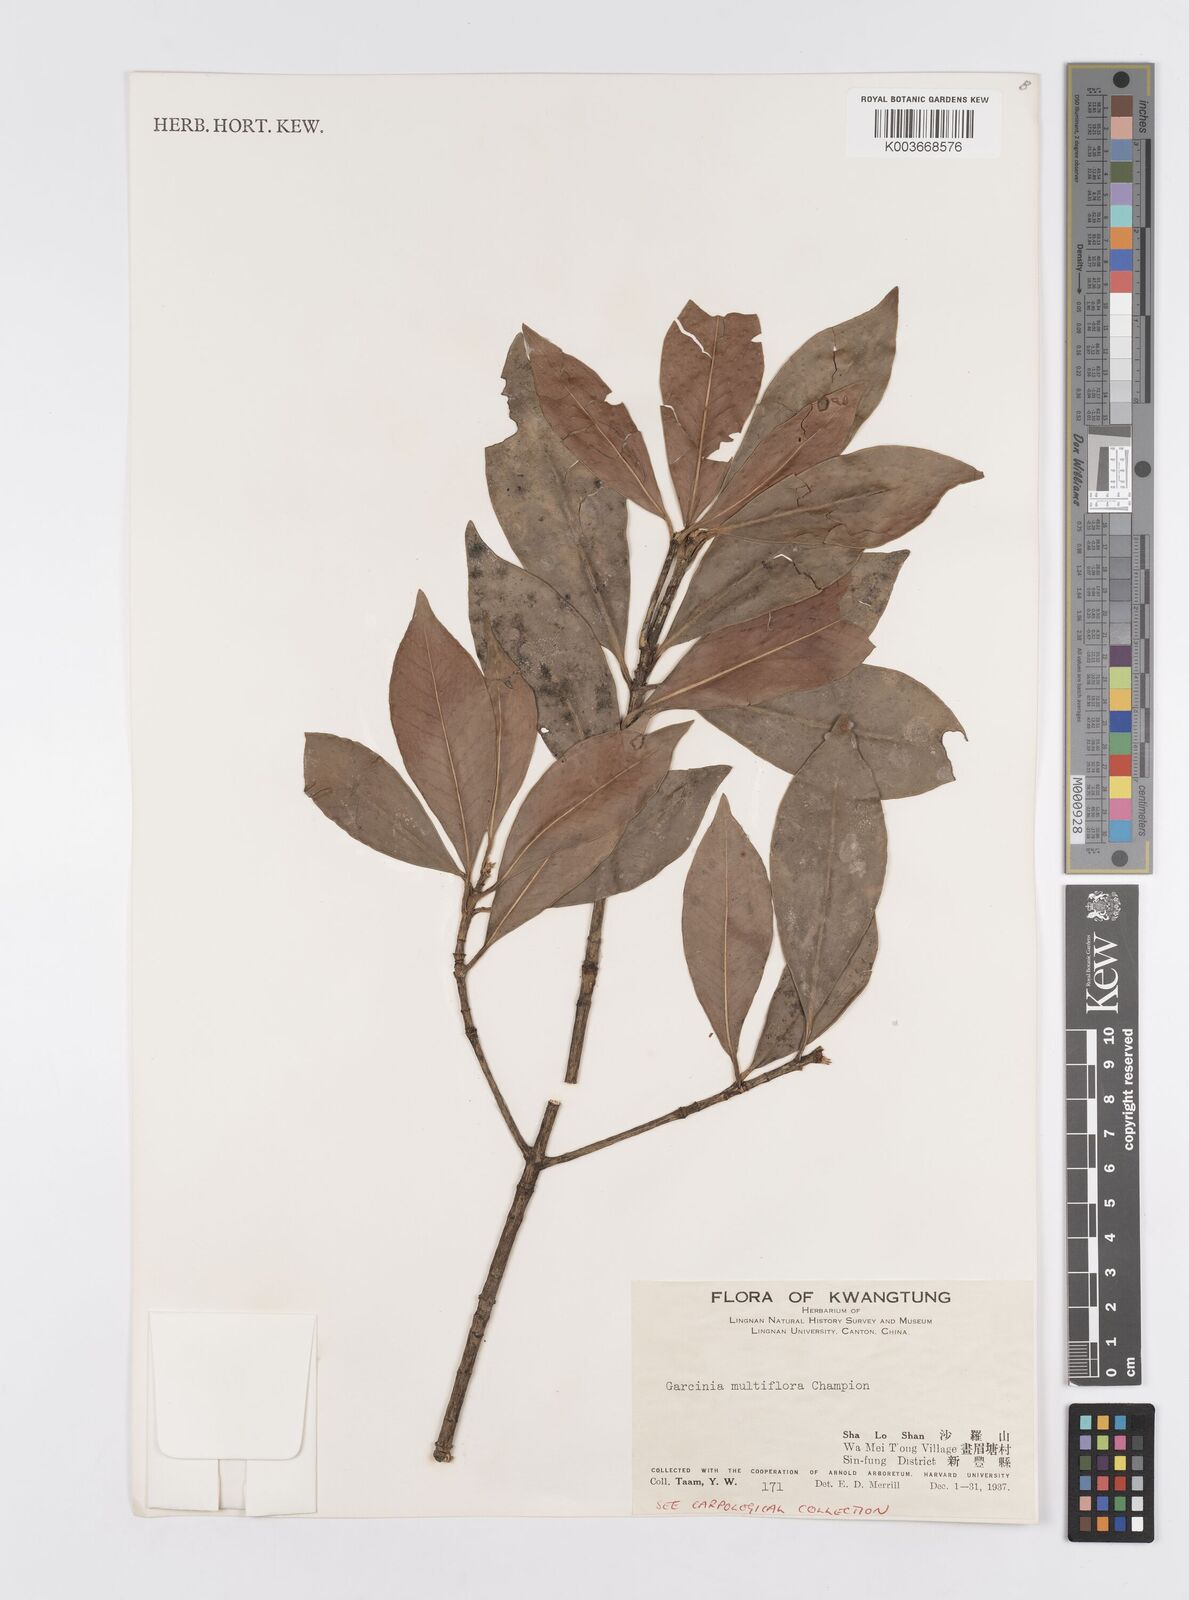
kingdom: Plantae
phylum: Tracheophyta
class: Magnoliopsida
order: Malpighiales
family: Clusiaceae
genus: Garcinia
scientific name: Garcinia multiflora
